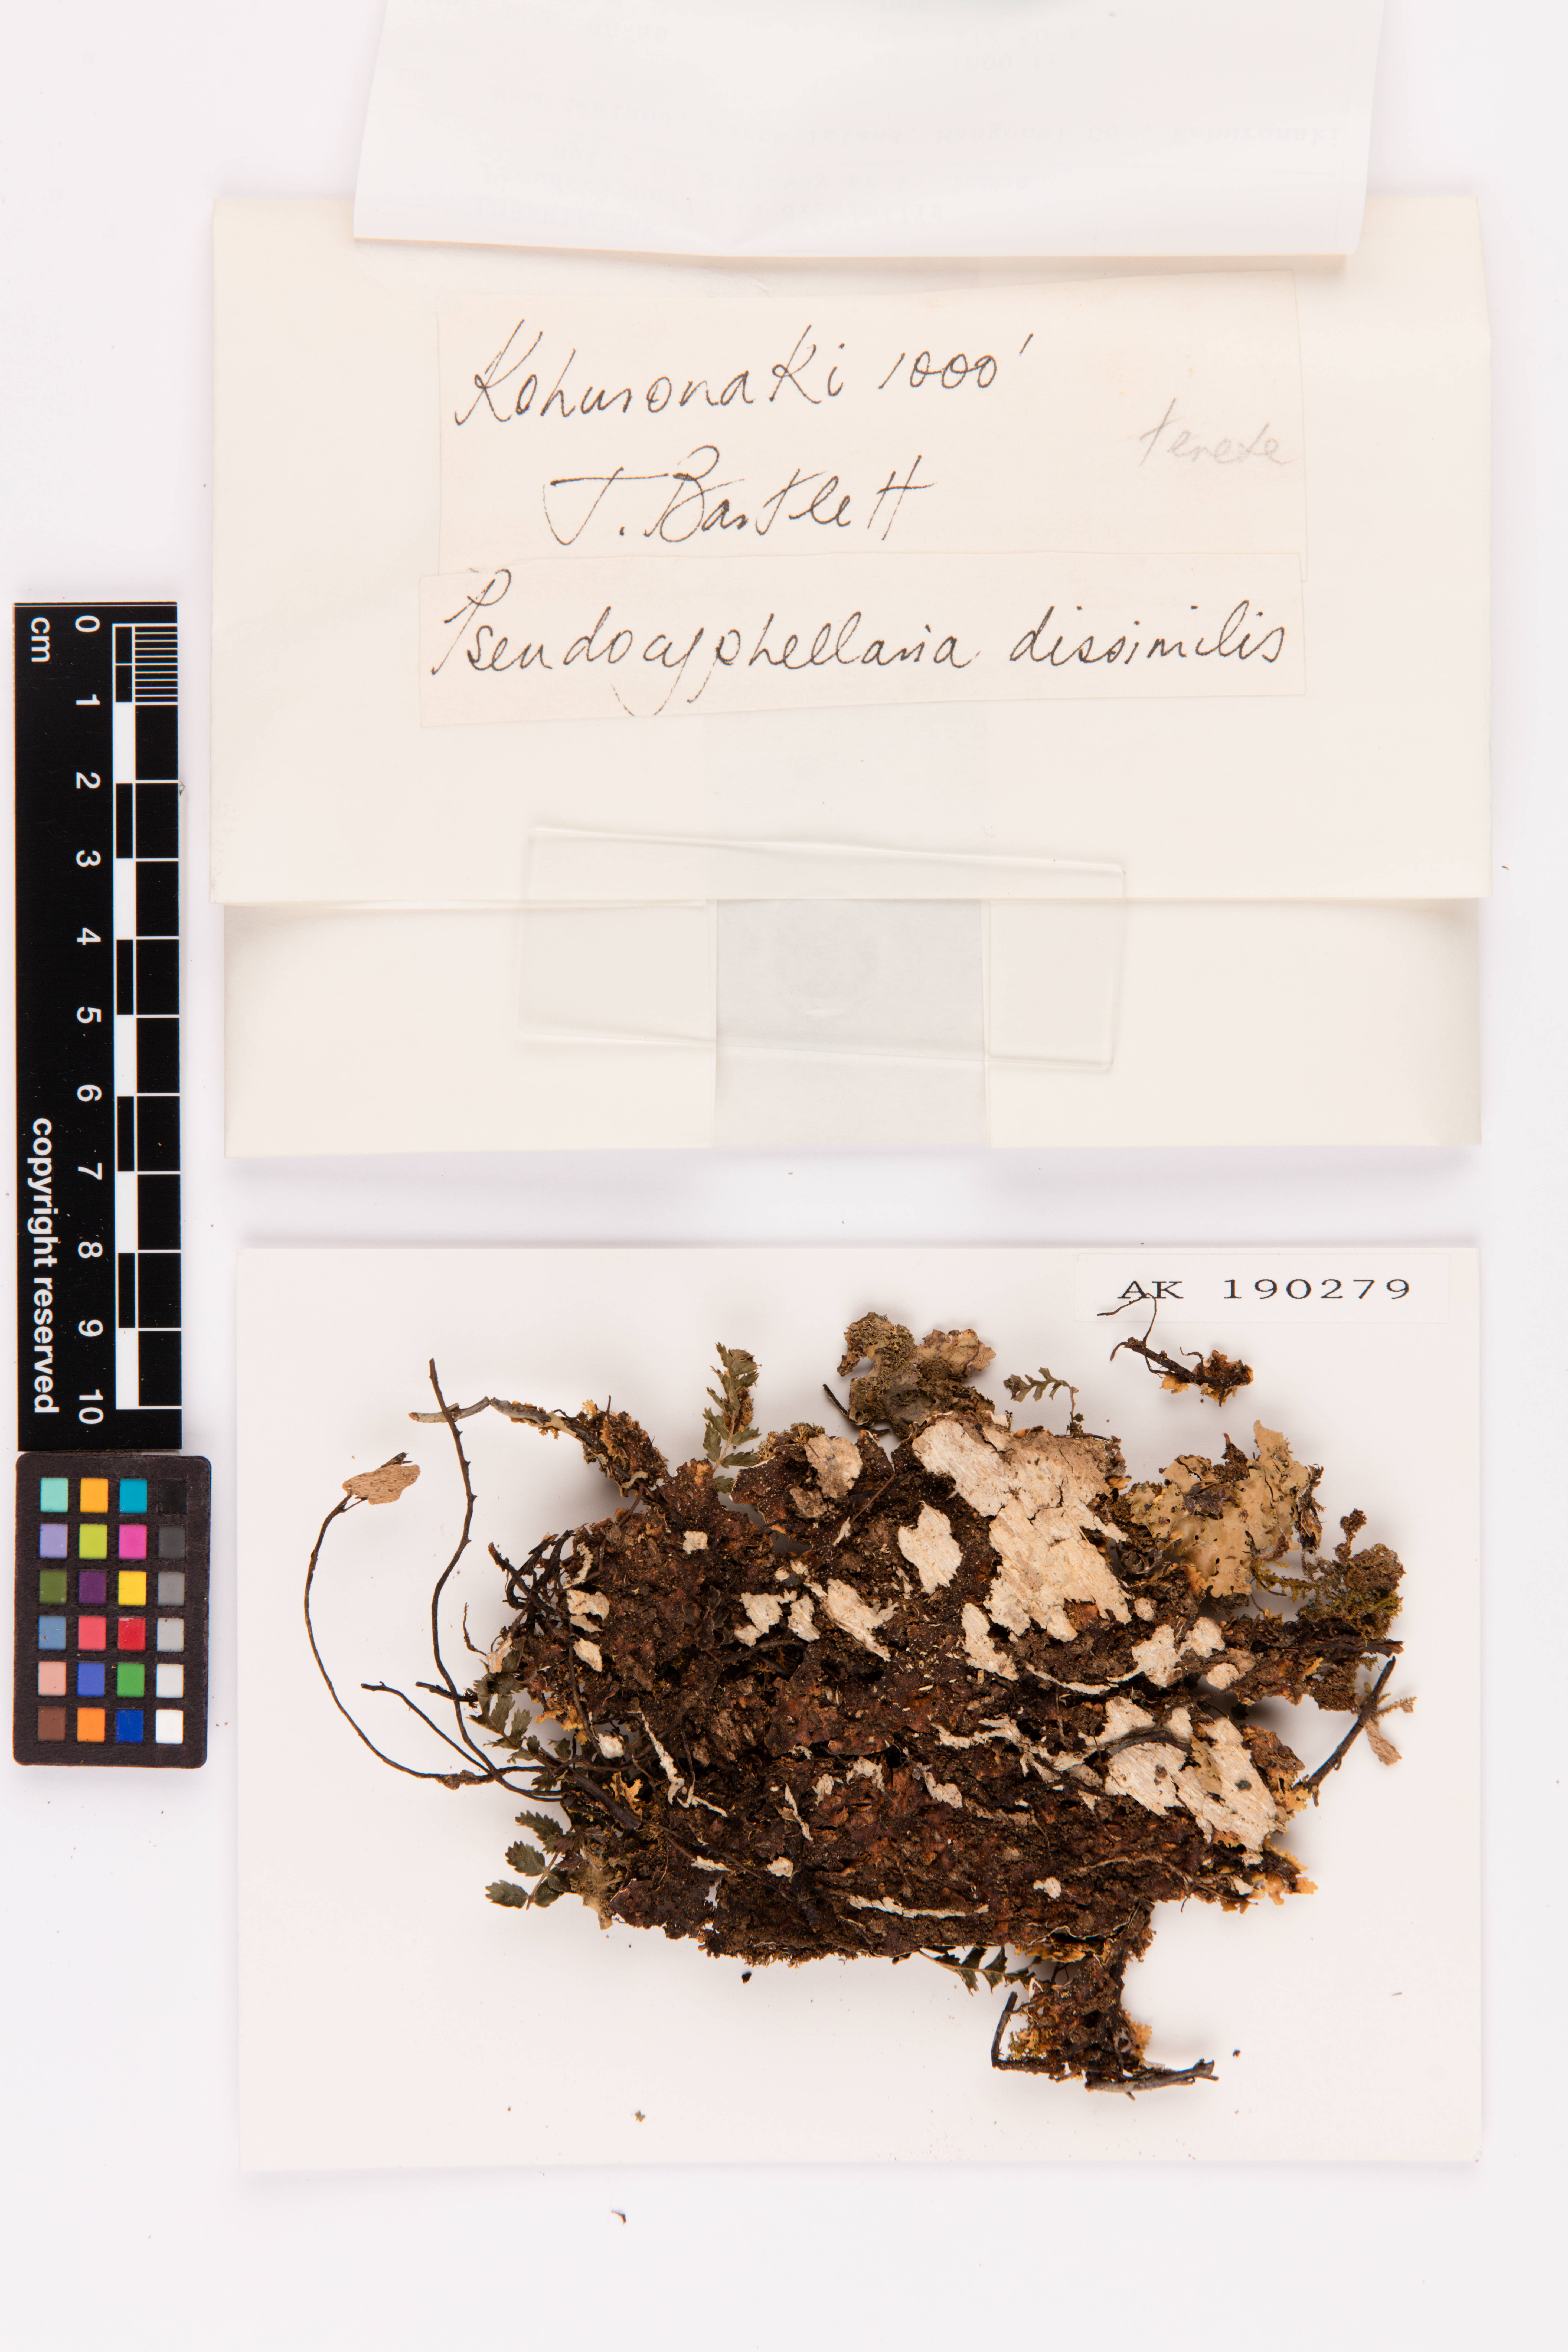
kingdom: Fungi
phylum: Ascomycota
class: Lecanoromycetes
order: Peltigerales
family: Lobariaceae
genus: Pseudocyphellaria
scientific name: Pseudocyphellaria dissimilis
